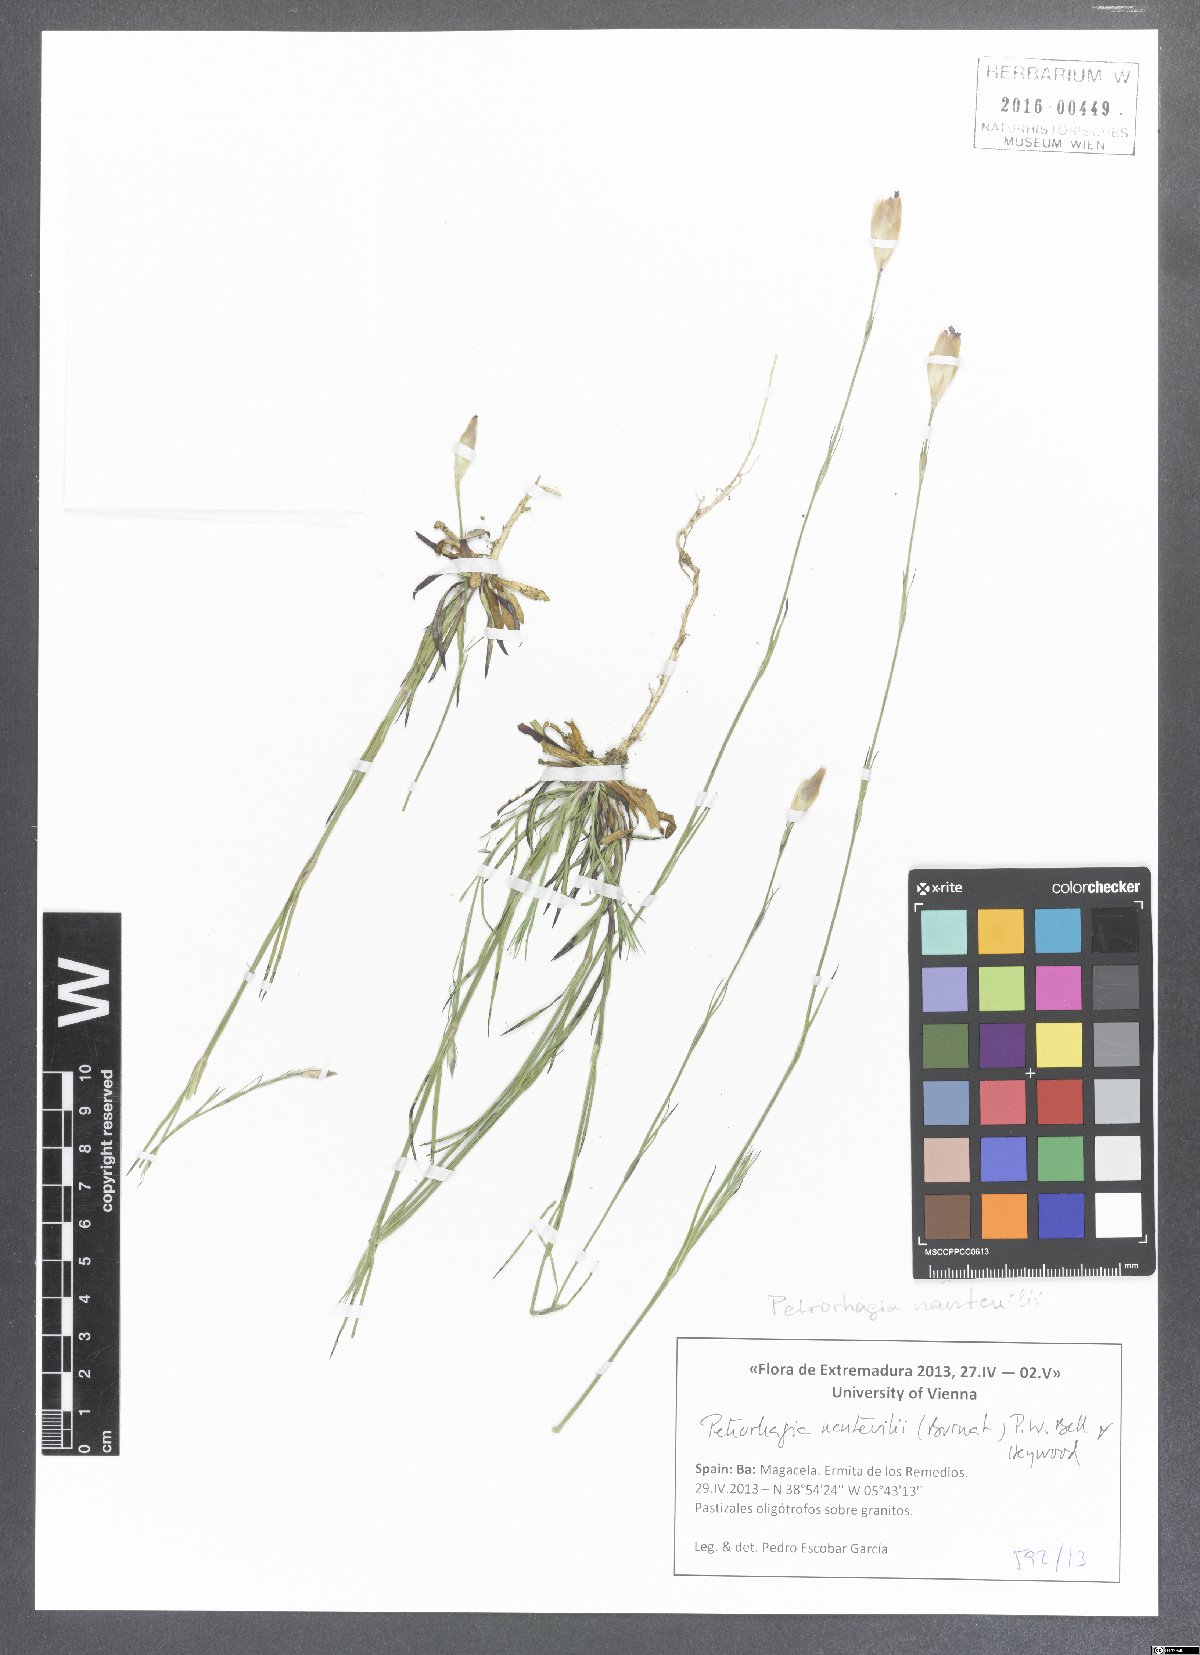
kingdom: Plantae
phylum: Tracheophyta
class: Magnoliopsida
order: Caryophyllales
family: Caryophyllaceae
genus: Petrorhagia
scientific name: Petrorhagia nanteuilii
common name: Proliferous pink
